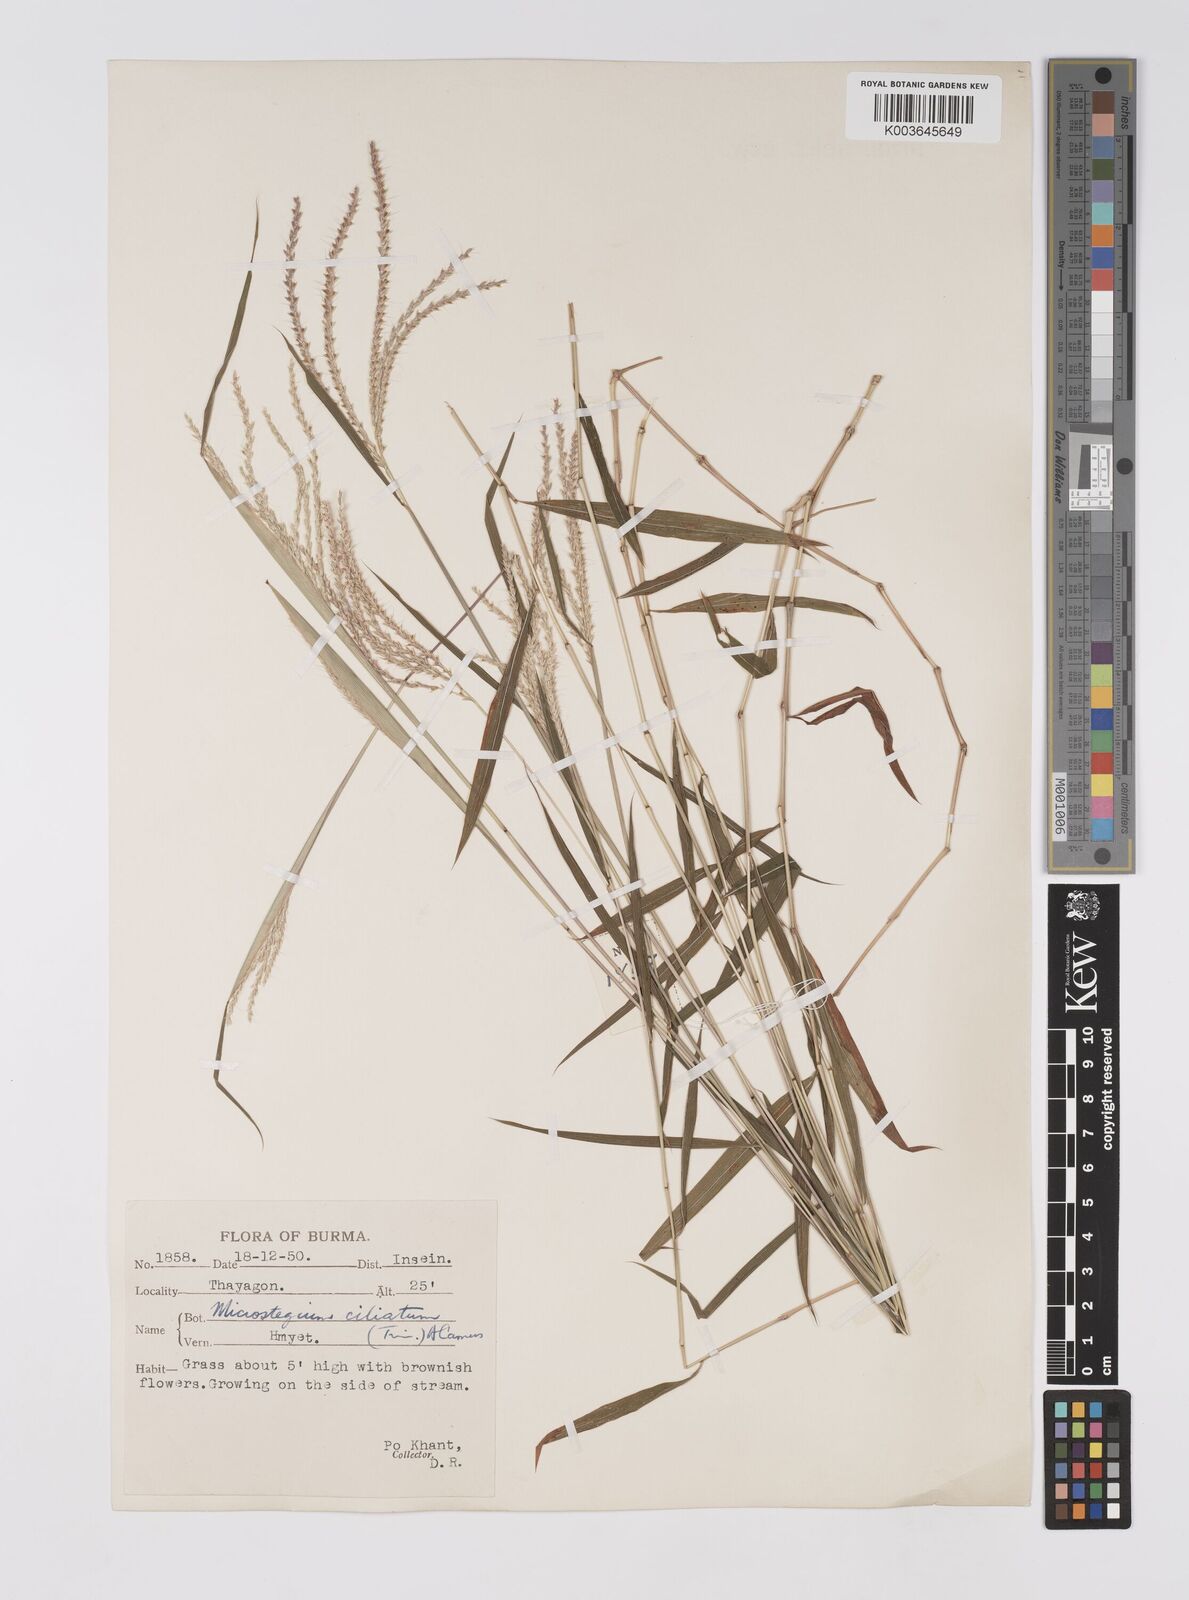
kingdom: Plantae
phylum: Tracheophyta
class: Liliopsida
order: Poales
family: Poaceae
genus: Microstegium
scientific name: Microstegium fasciculatum
